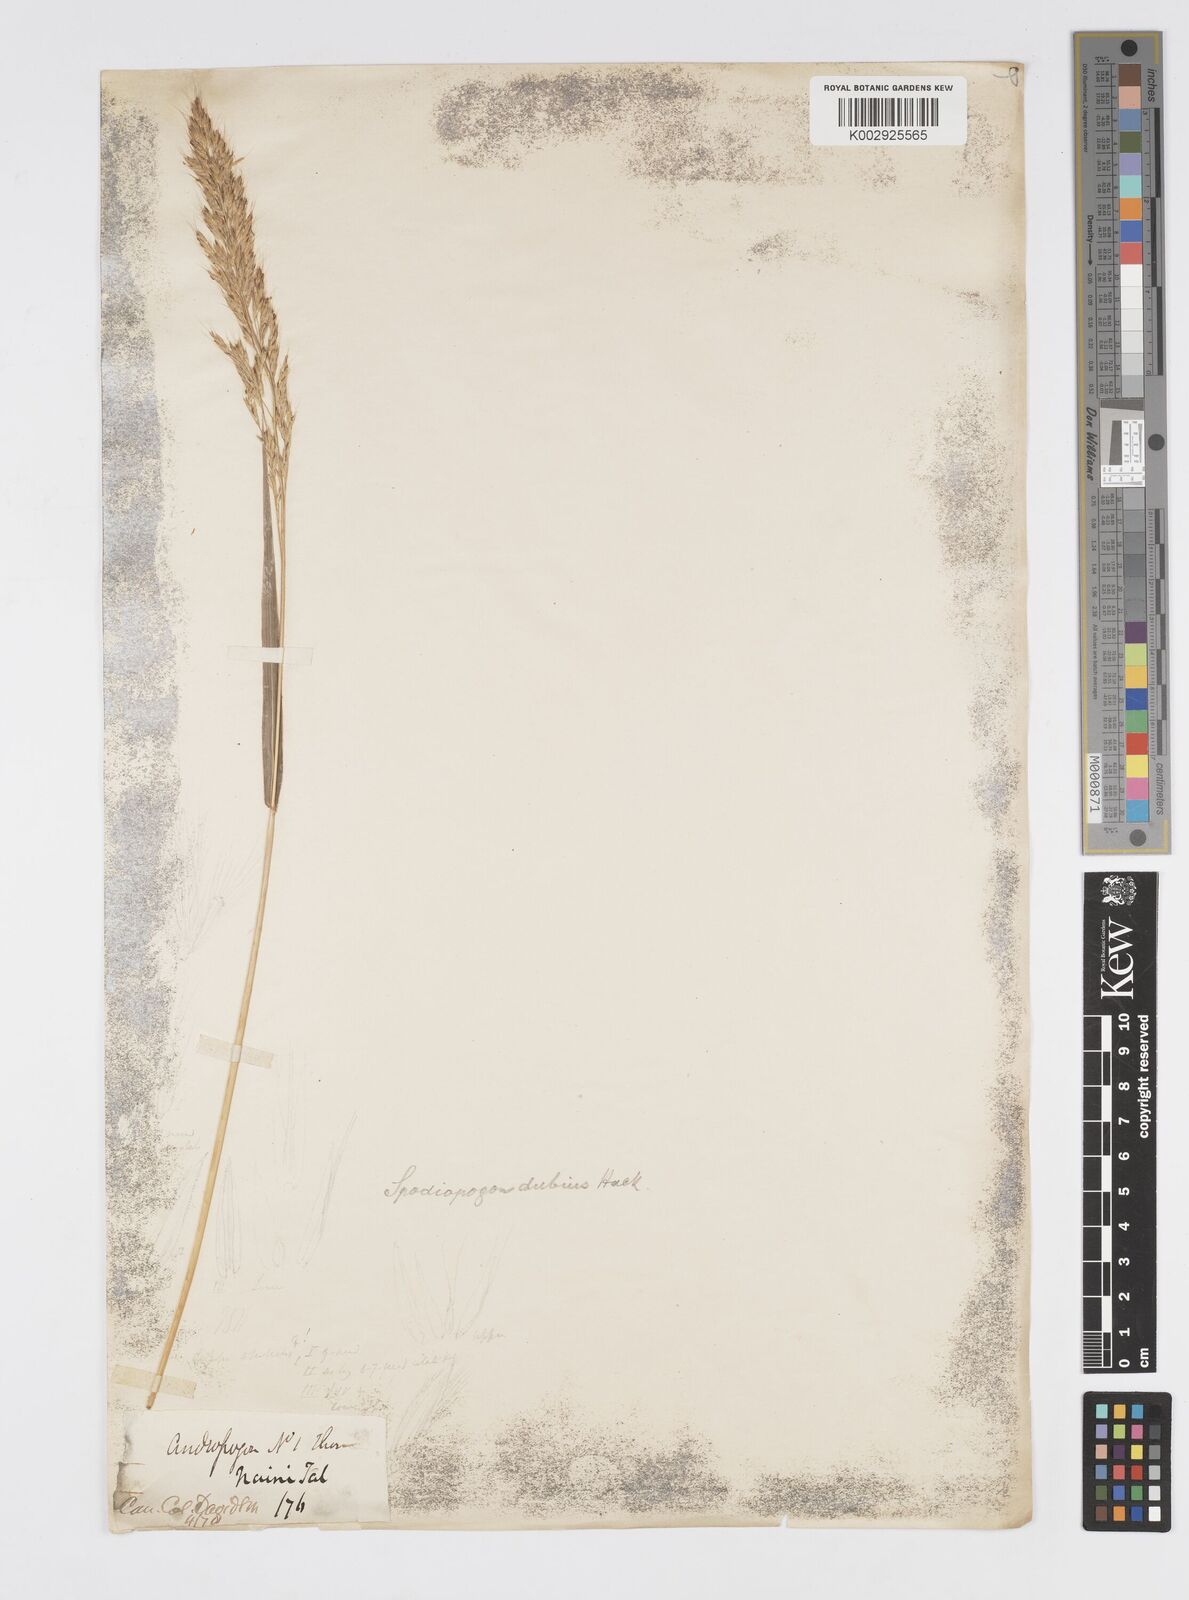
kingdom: Plantae
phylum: Tracheophyta
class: Liliopsida
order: Poales
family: Poaceae
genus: Spodiopogon
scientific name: Spodiopogon dubius
